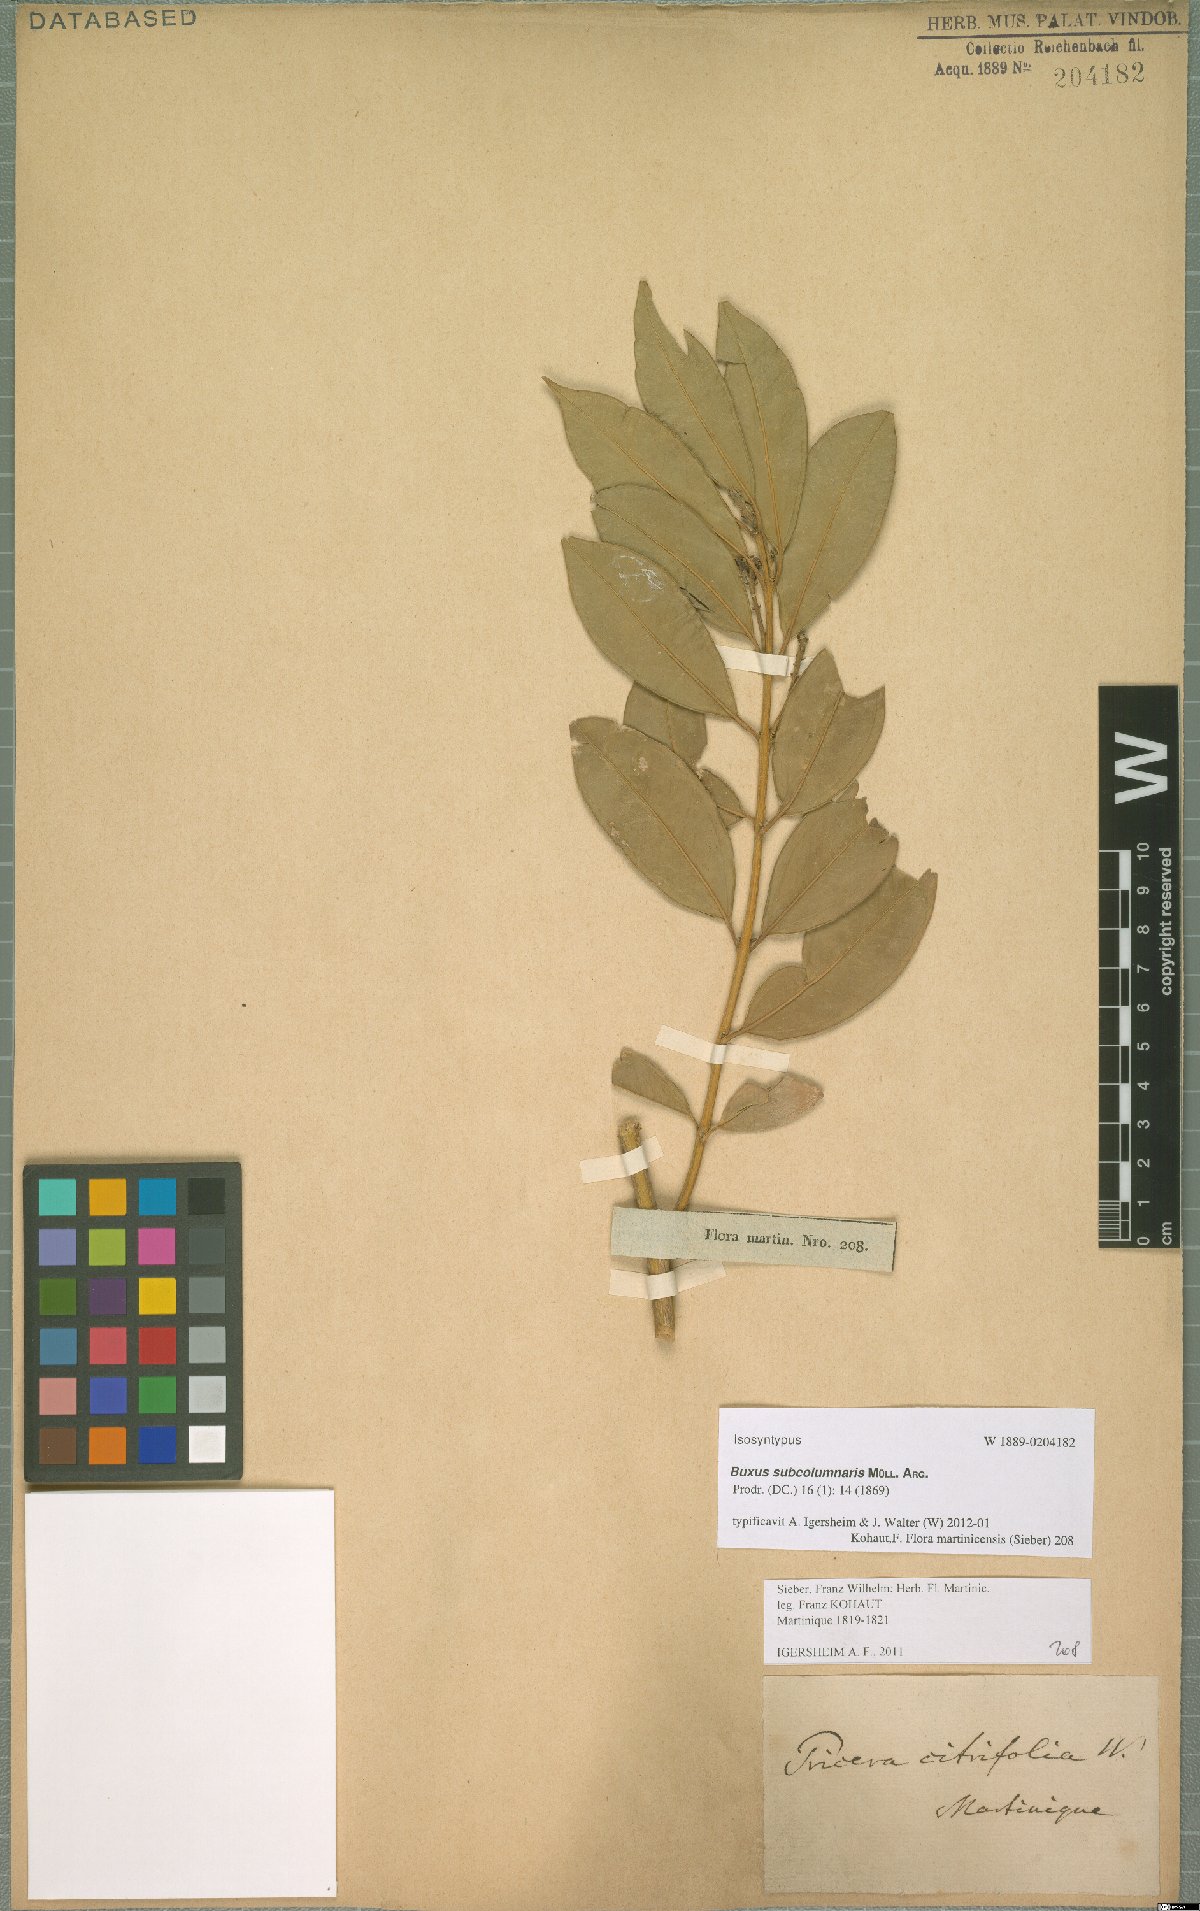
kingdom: Plantae
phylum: Tracheophyta
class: Magnoliopsida
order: Buxales
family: Buxaceae
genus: Buxus
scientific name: Buxus subcolumnaris
